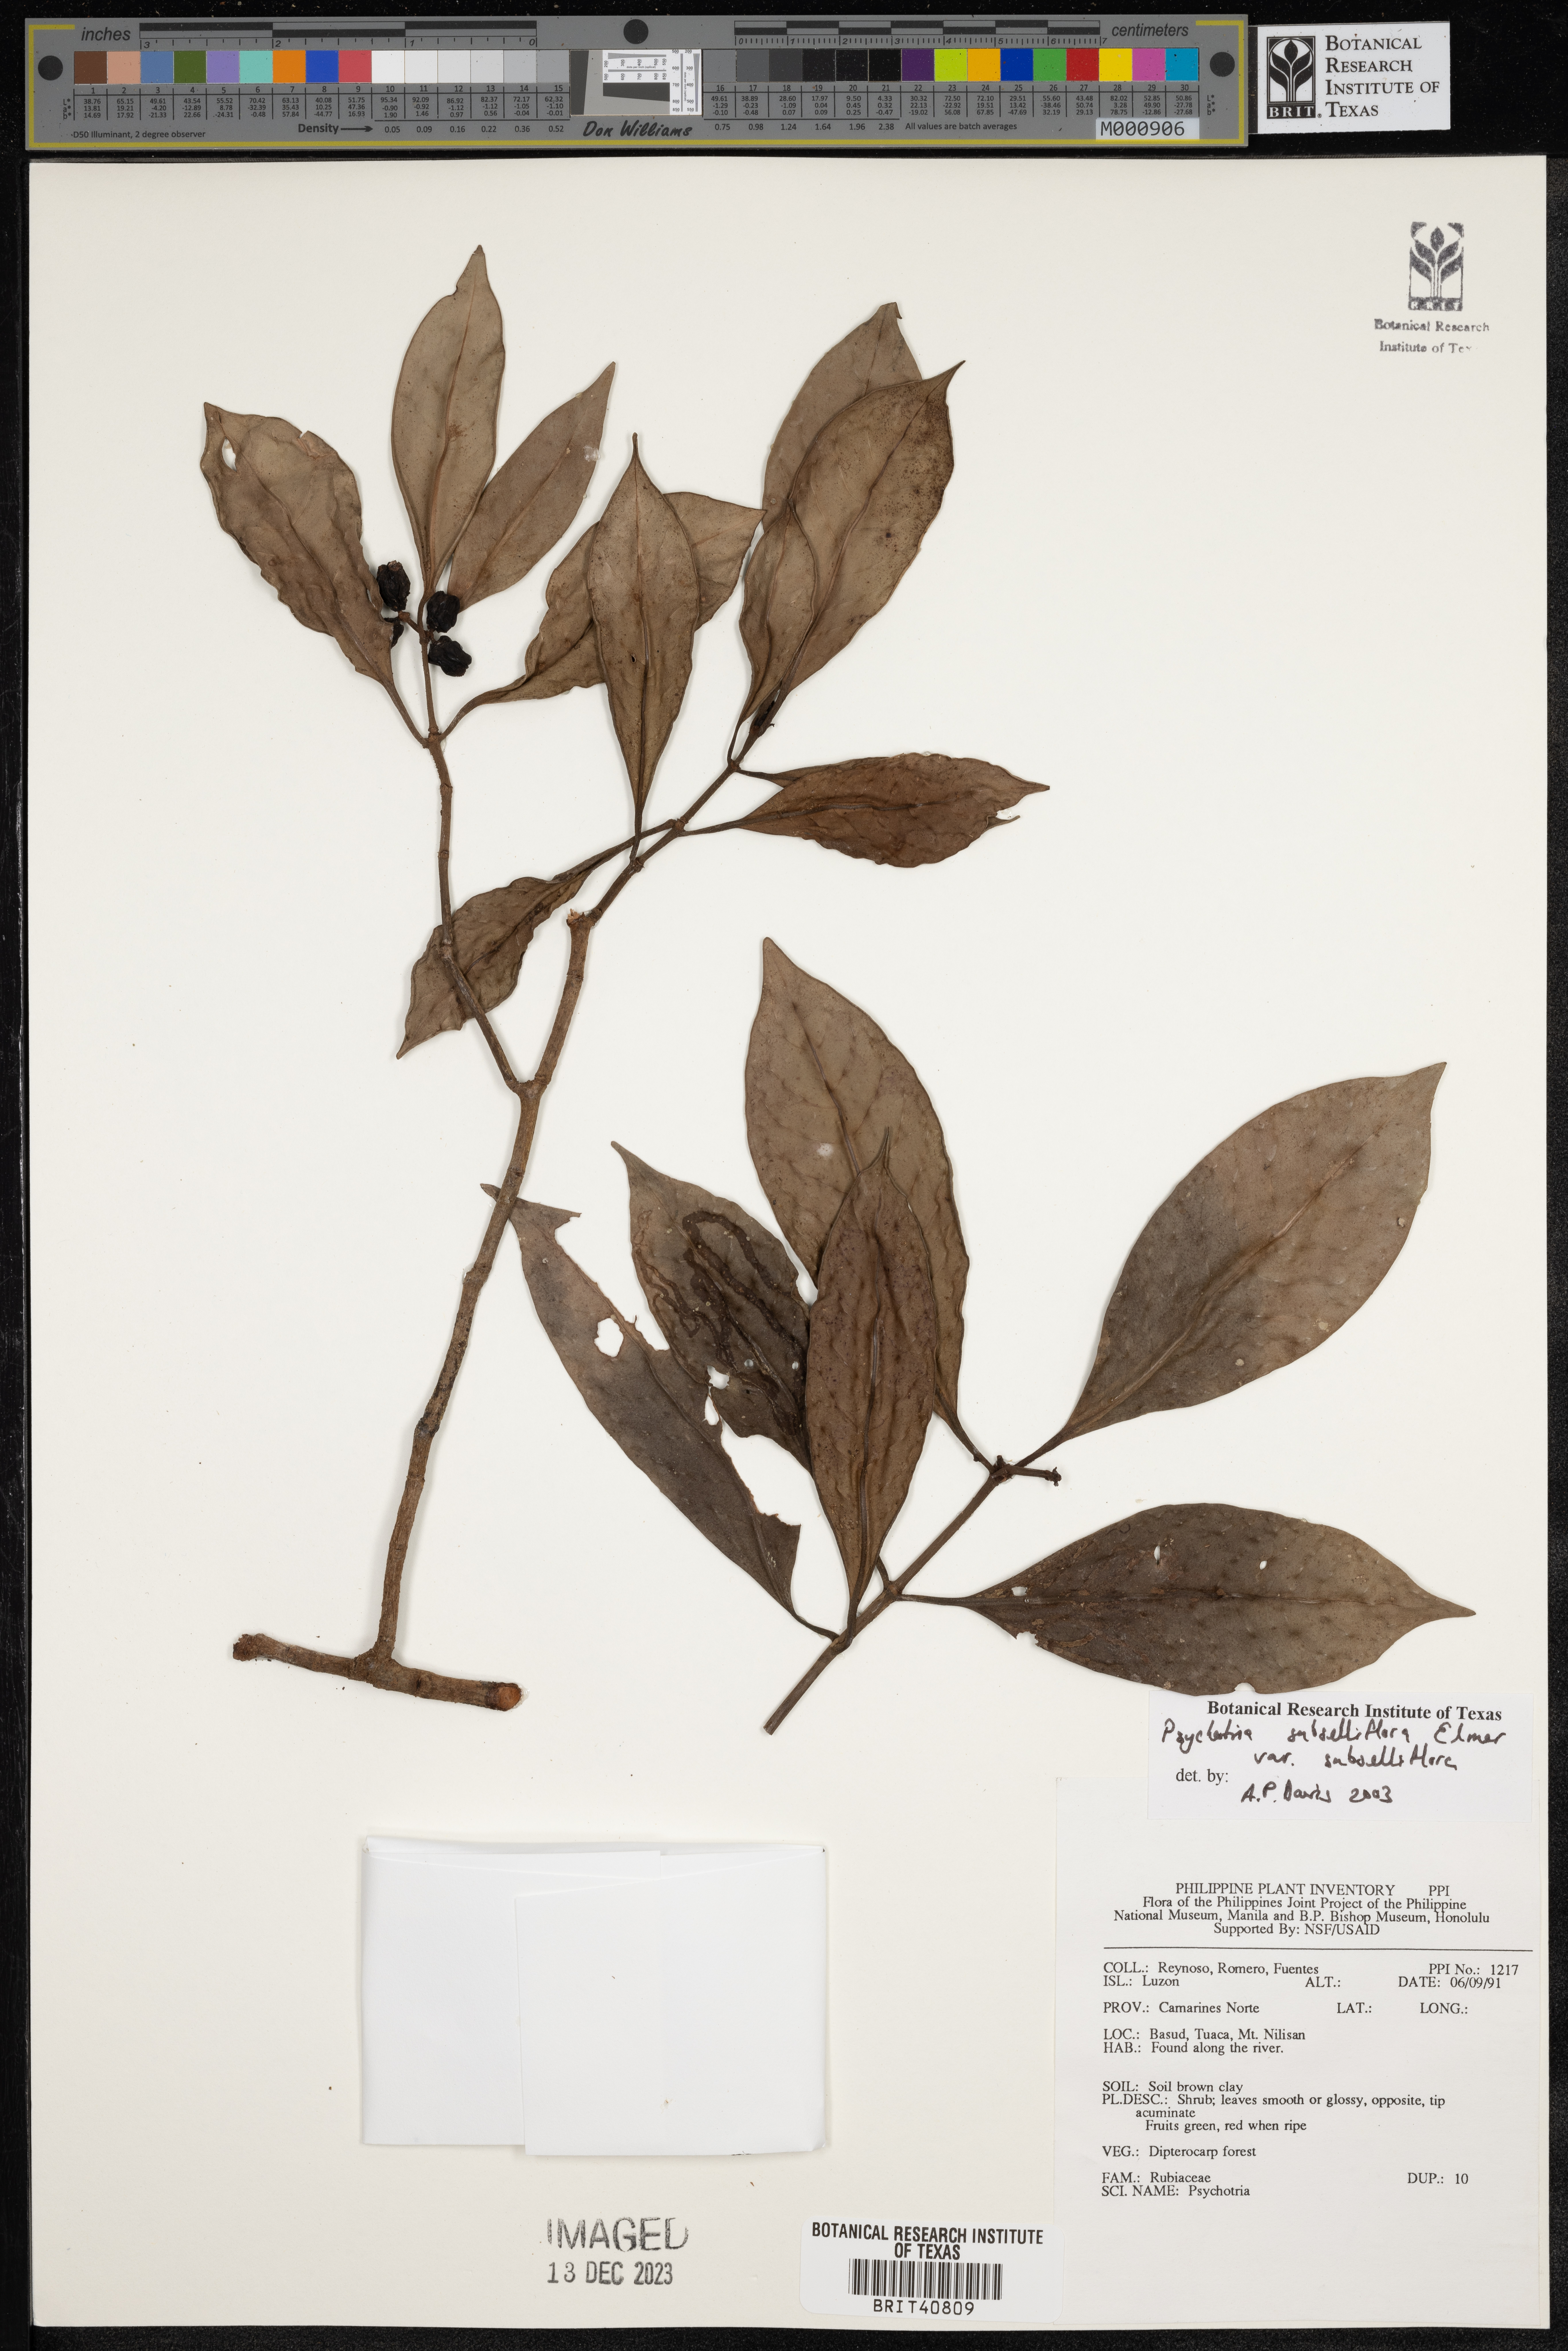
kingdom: Plantae
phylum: Tracheophyta
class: Magnoliopsida
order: Gentianales
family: Rubiaceae
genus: Psychotria
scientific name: Psychotria subsessiliflora
